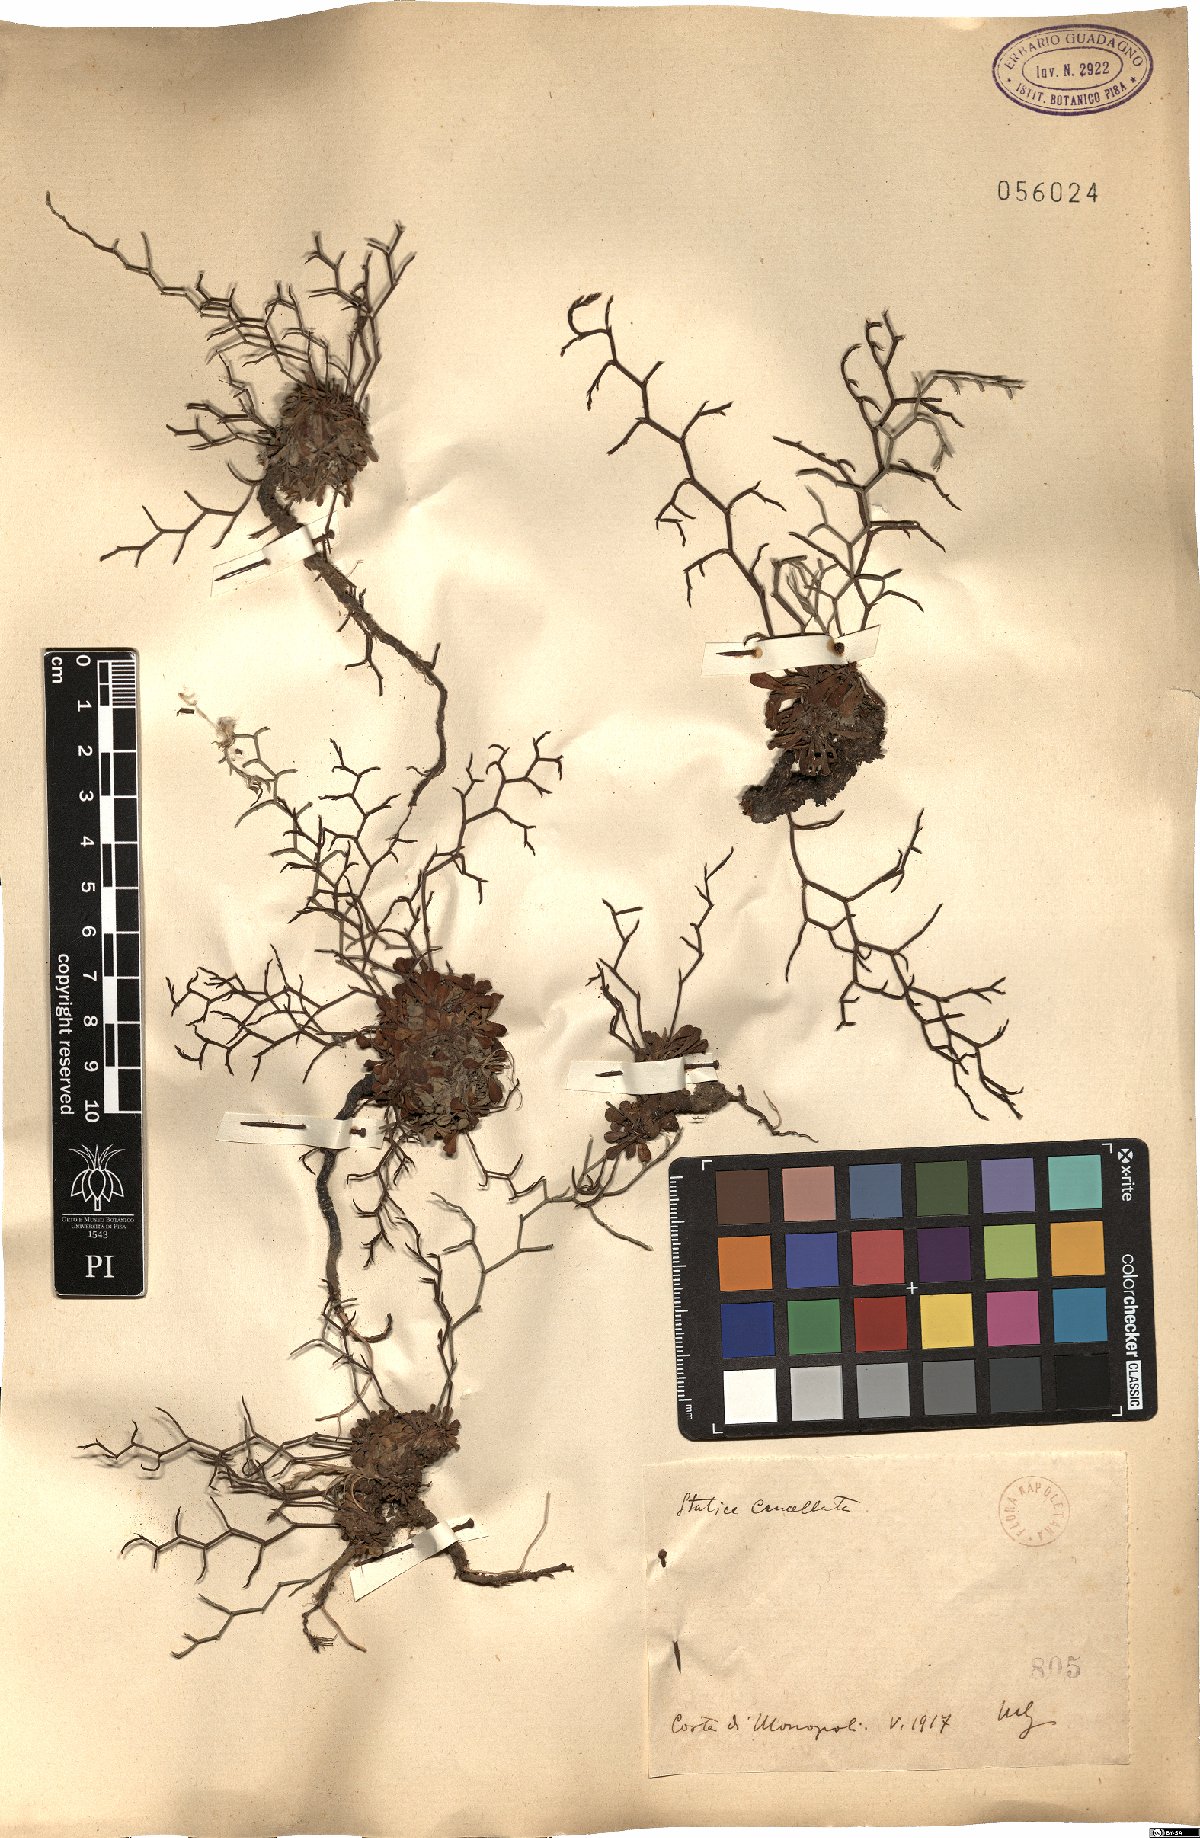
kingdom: Plantae
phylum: Tracheophyta
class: Magnoliopsida
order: Caryophyllales
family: Plumbaginaceae
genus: Limonium
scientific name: Limonium cancellatum
